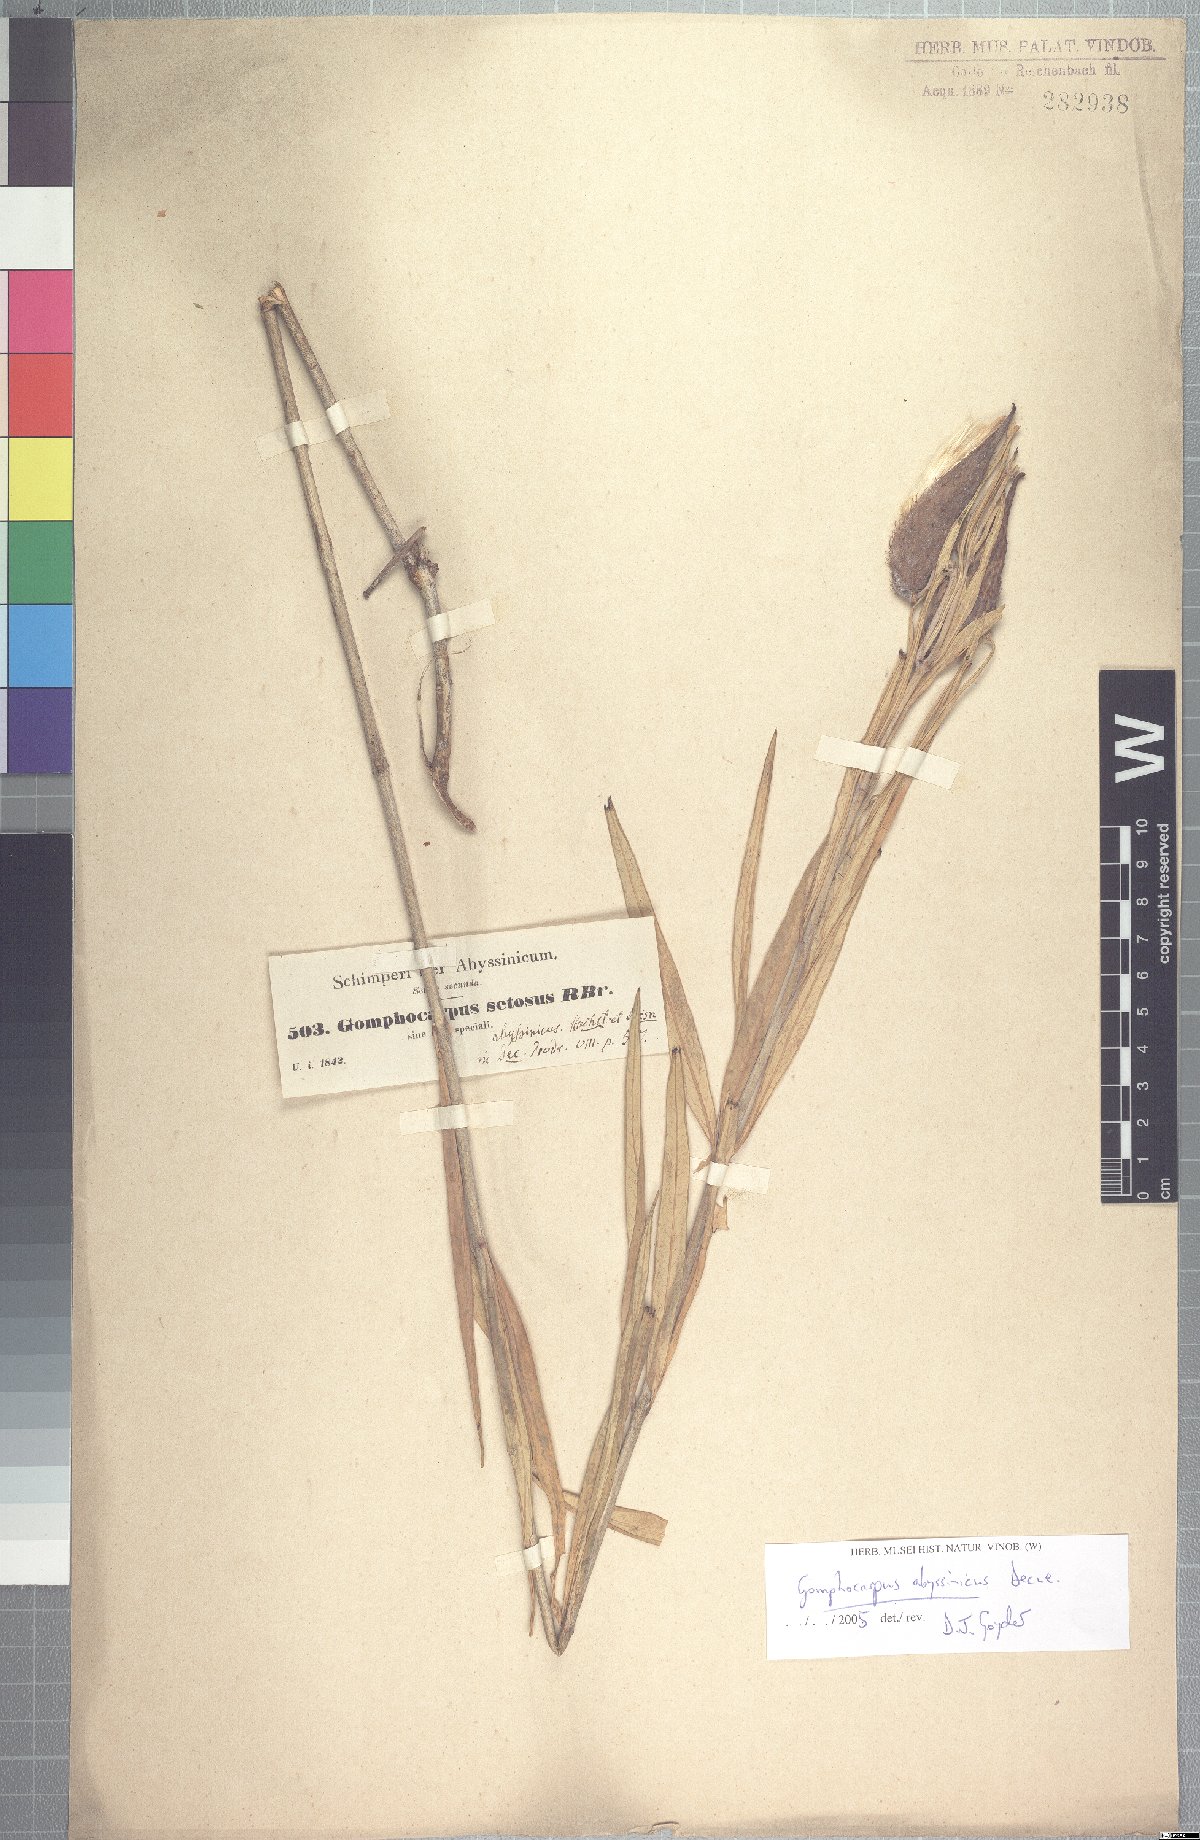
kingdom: Plantae
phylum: Tracheophyta
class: Magnoliopsida
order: Gentianales
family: Apocynaceae
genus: Gomphocarpus
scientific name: Gomphocarpus abyssinicus
